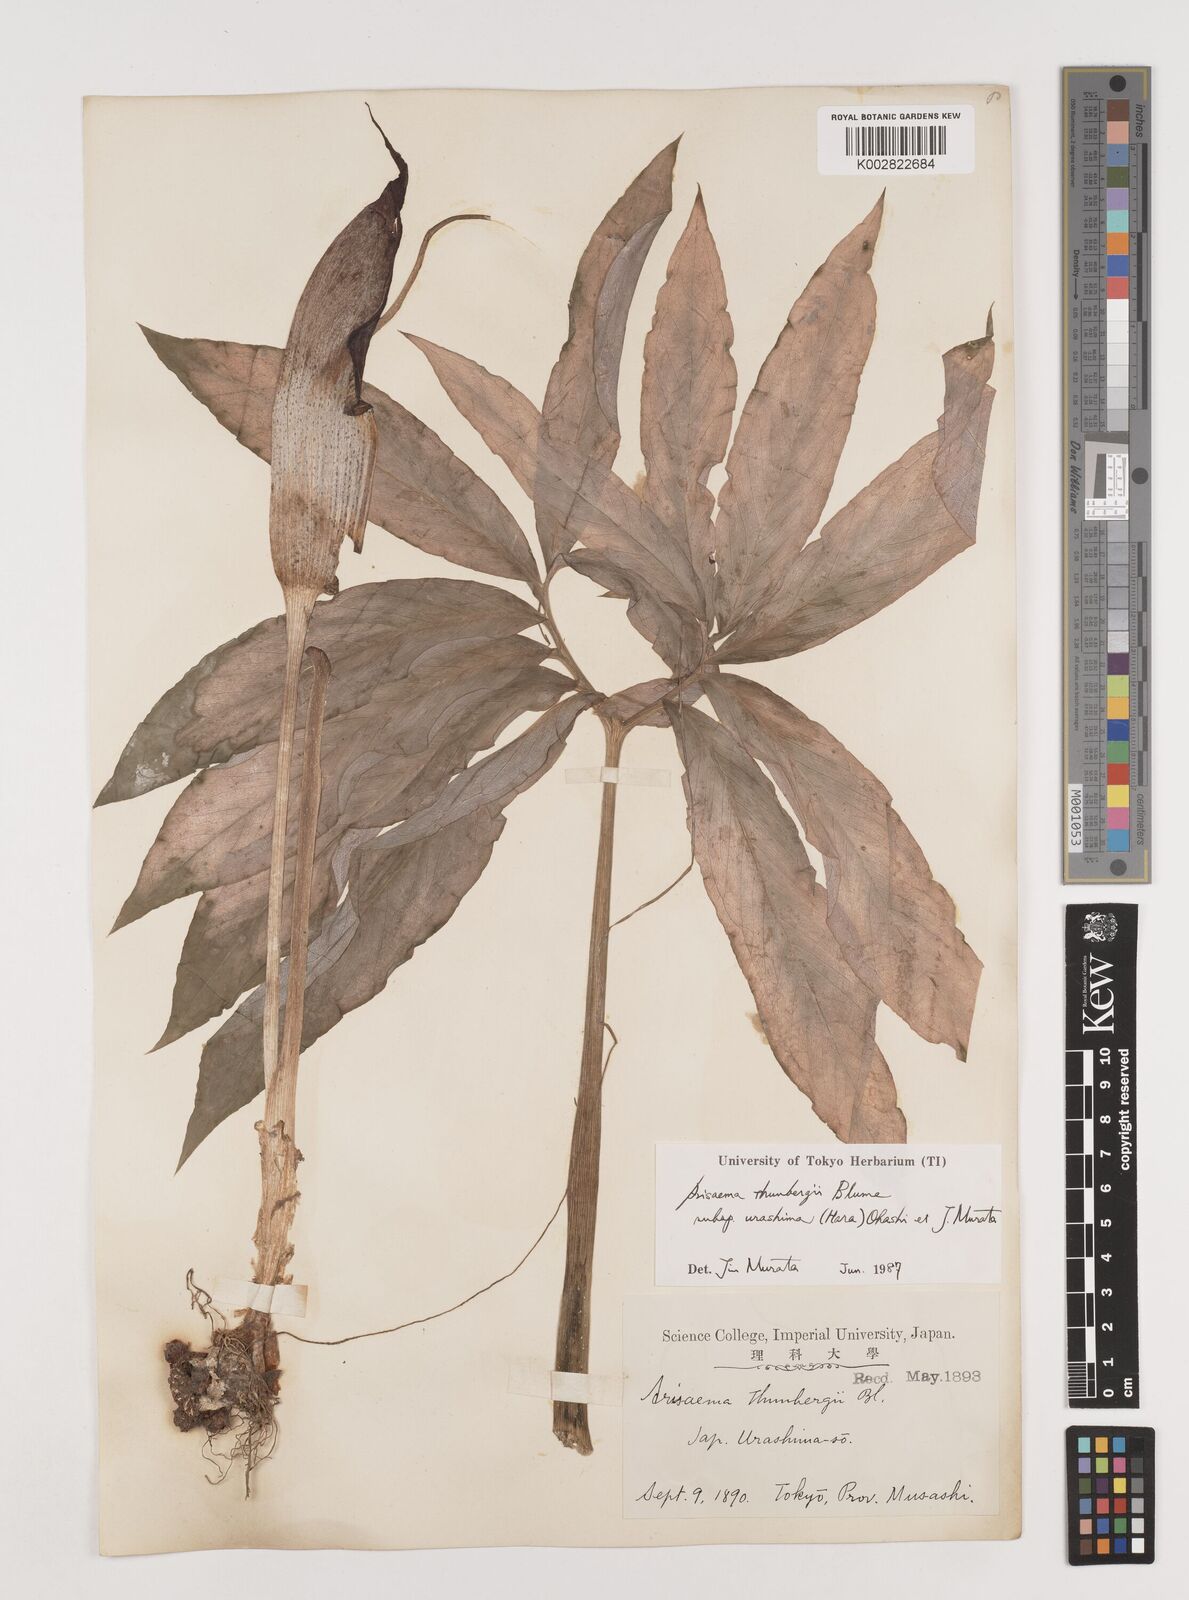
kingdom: Plantae
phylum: Tracheophyta
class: Liliopsida
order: Alismatales
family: Araceae
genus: Arisaema
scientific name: Arisaema thunbergii
